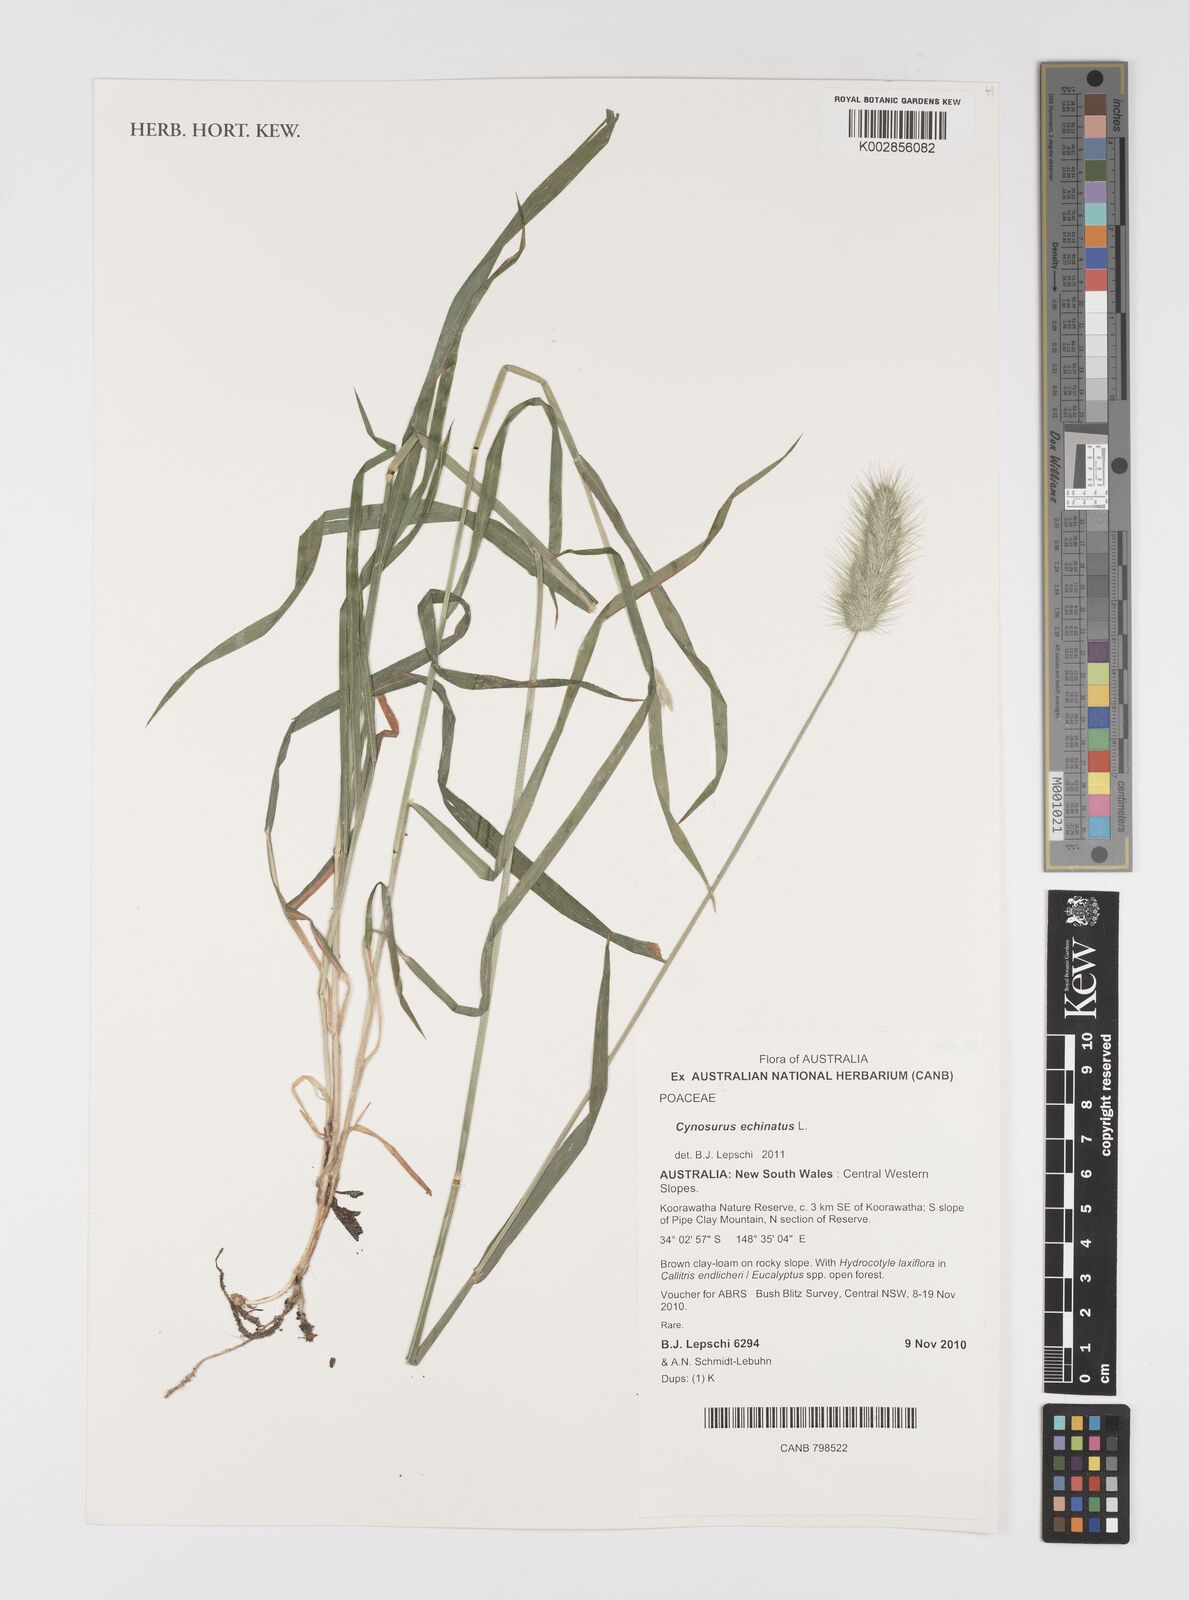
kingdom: Plantae
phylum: Tracheophyta
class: Liliopsida
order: Poales
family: Poaceae
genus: Cynosurus
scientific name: Cynosurus echinatus
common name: Rough dog's-tail
